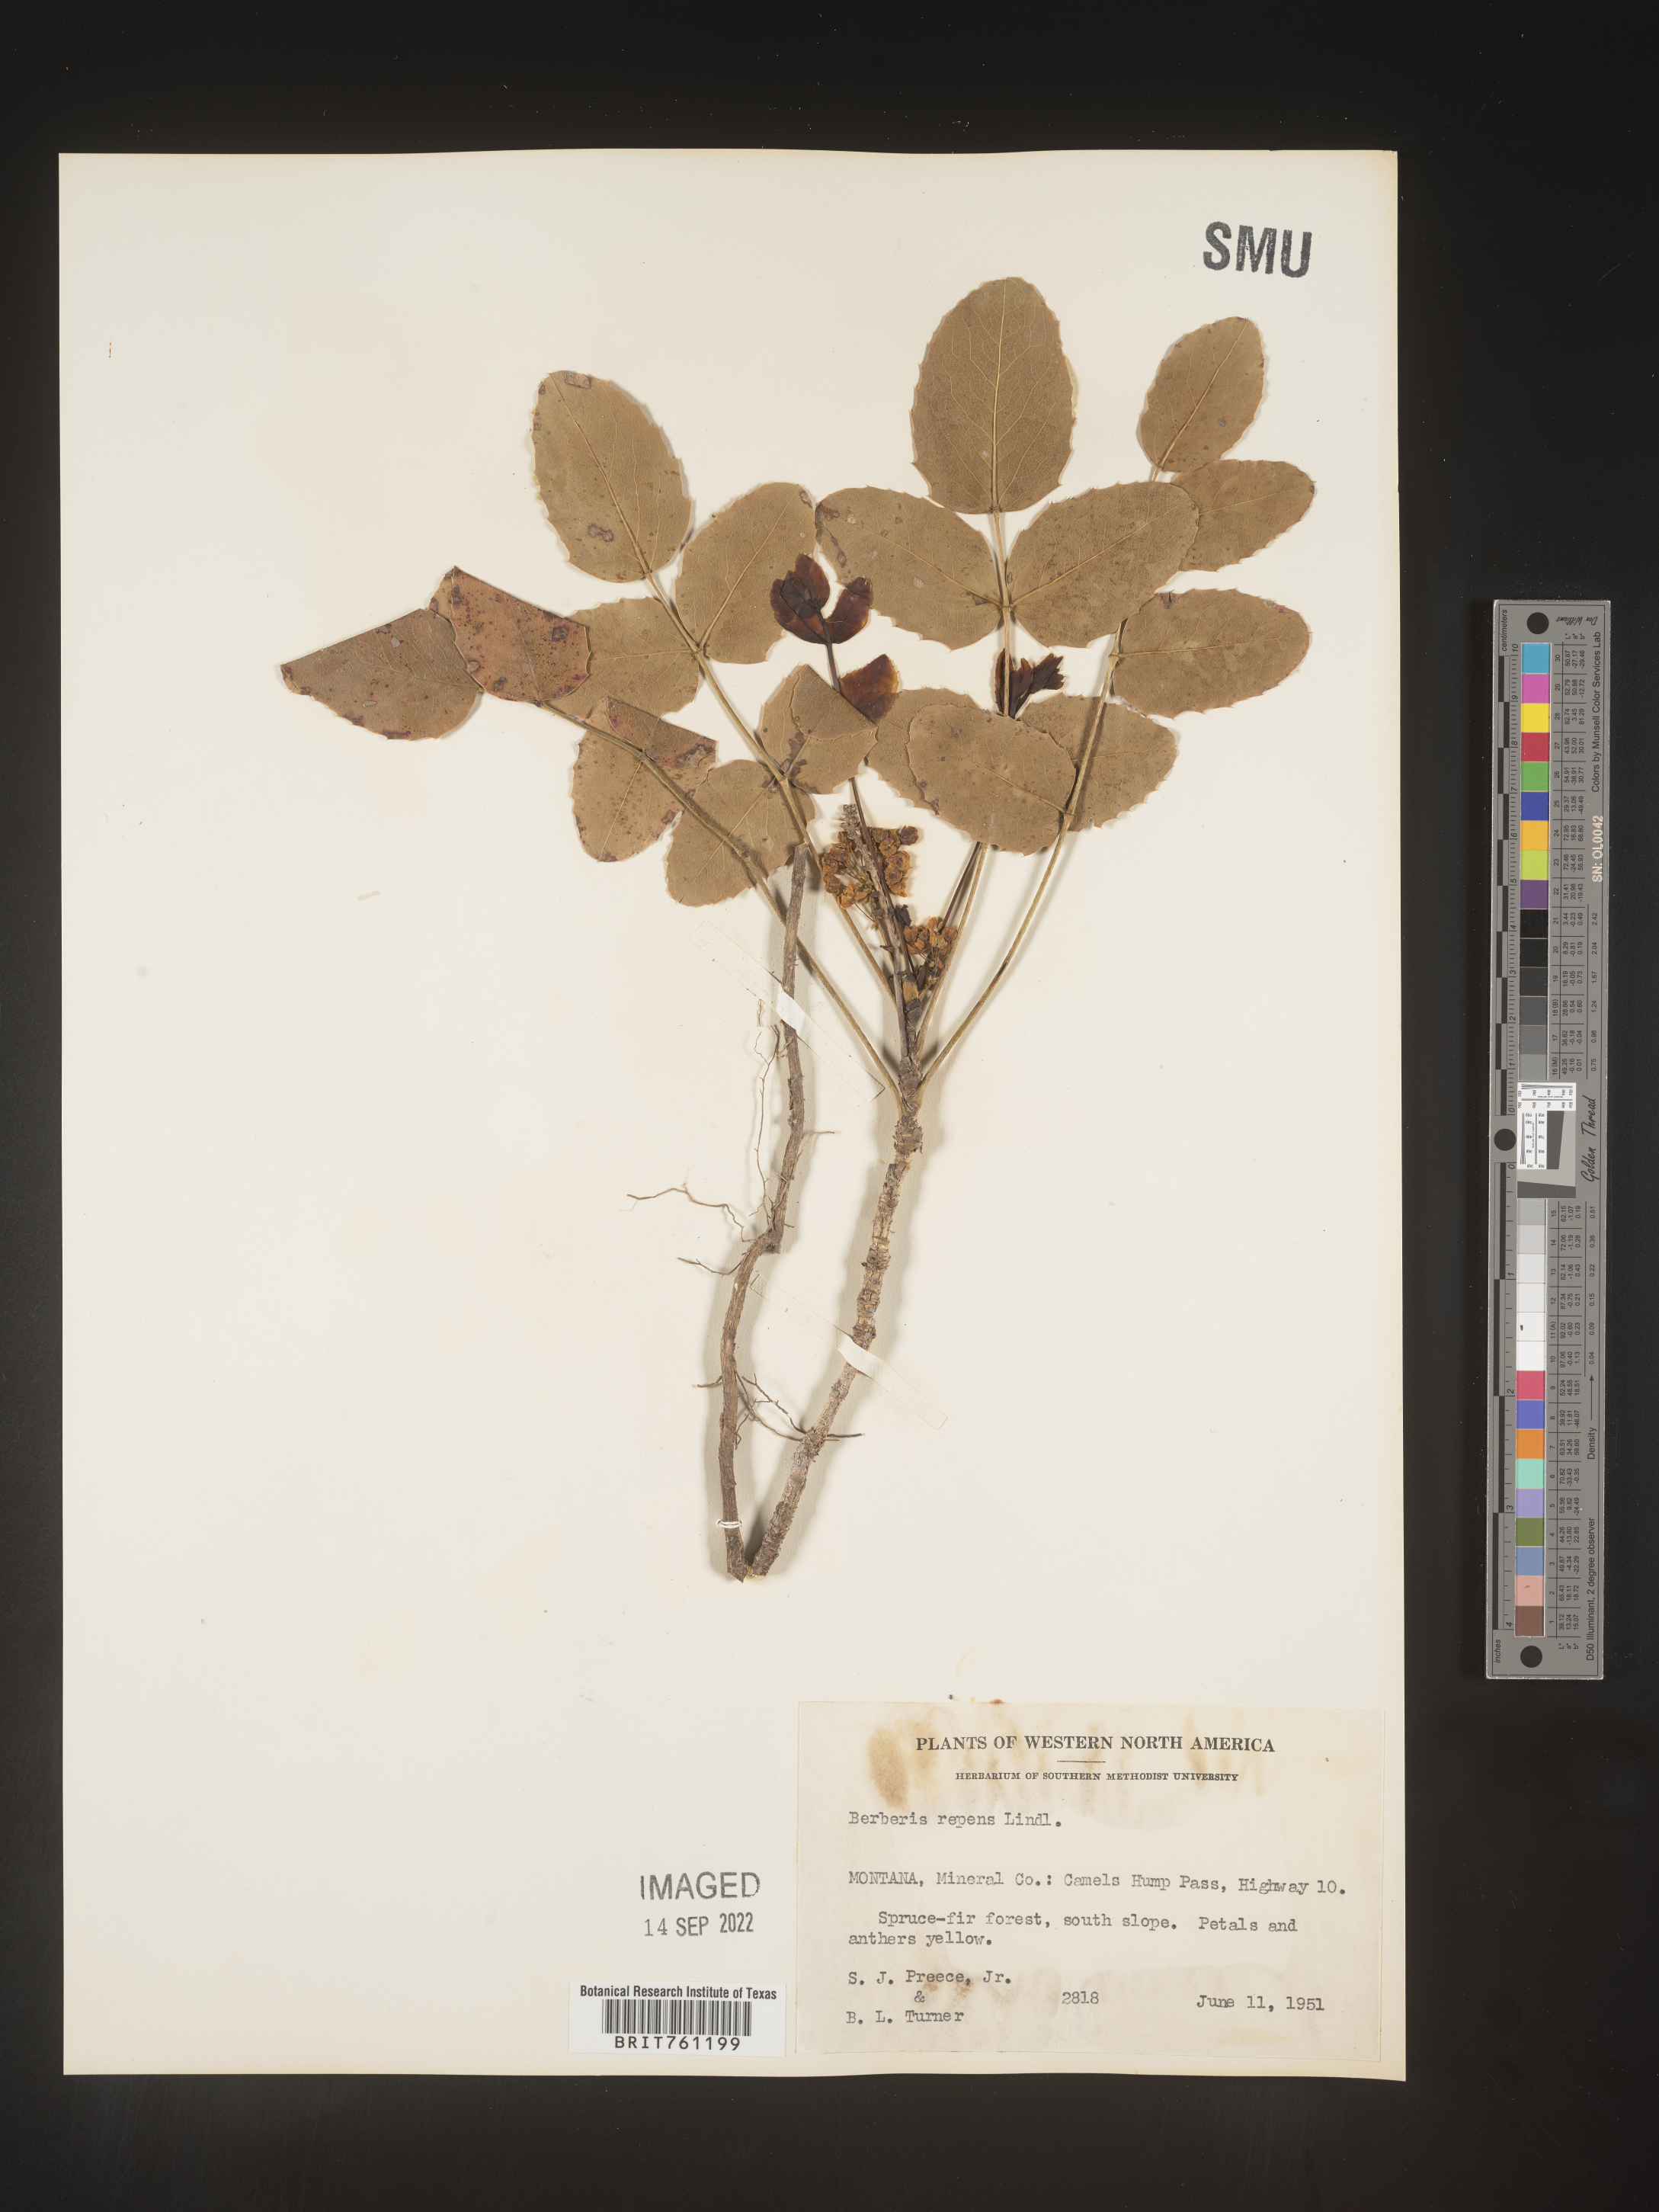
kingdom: Plantae
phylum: Tracheophyta
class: Magnoliopsida
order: Ranunculales
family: Berberidaceae
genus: Mahonia
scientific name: Mahonia repens
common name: Creeping oregon-grape
